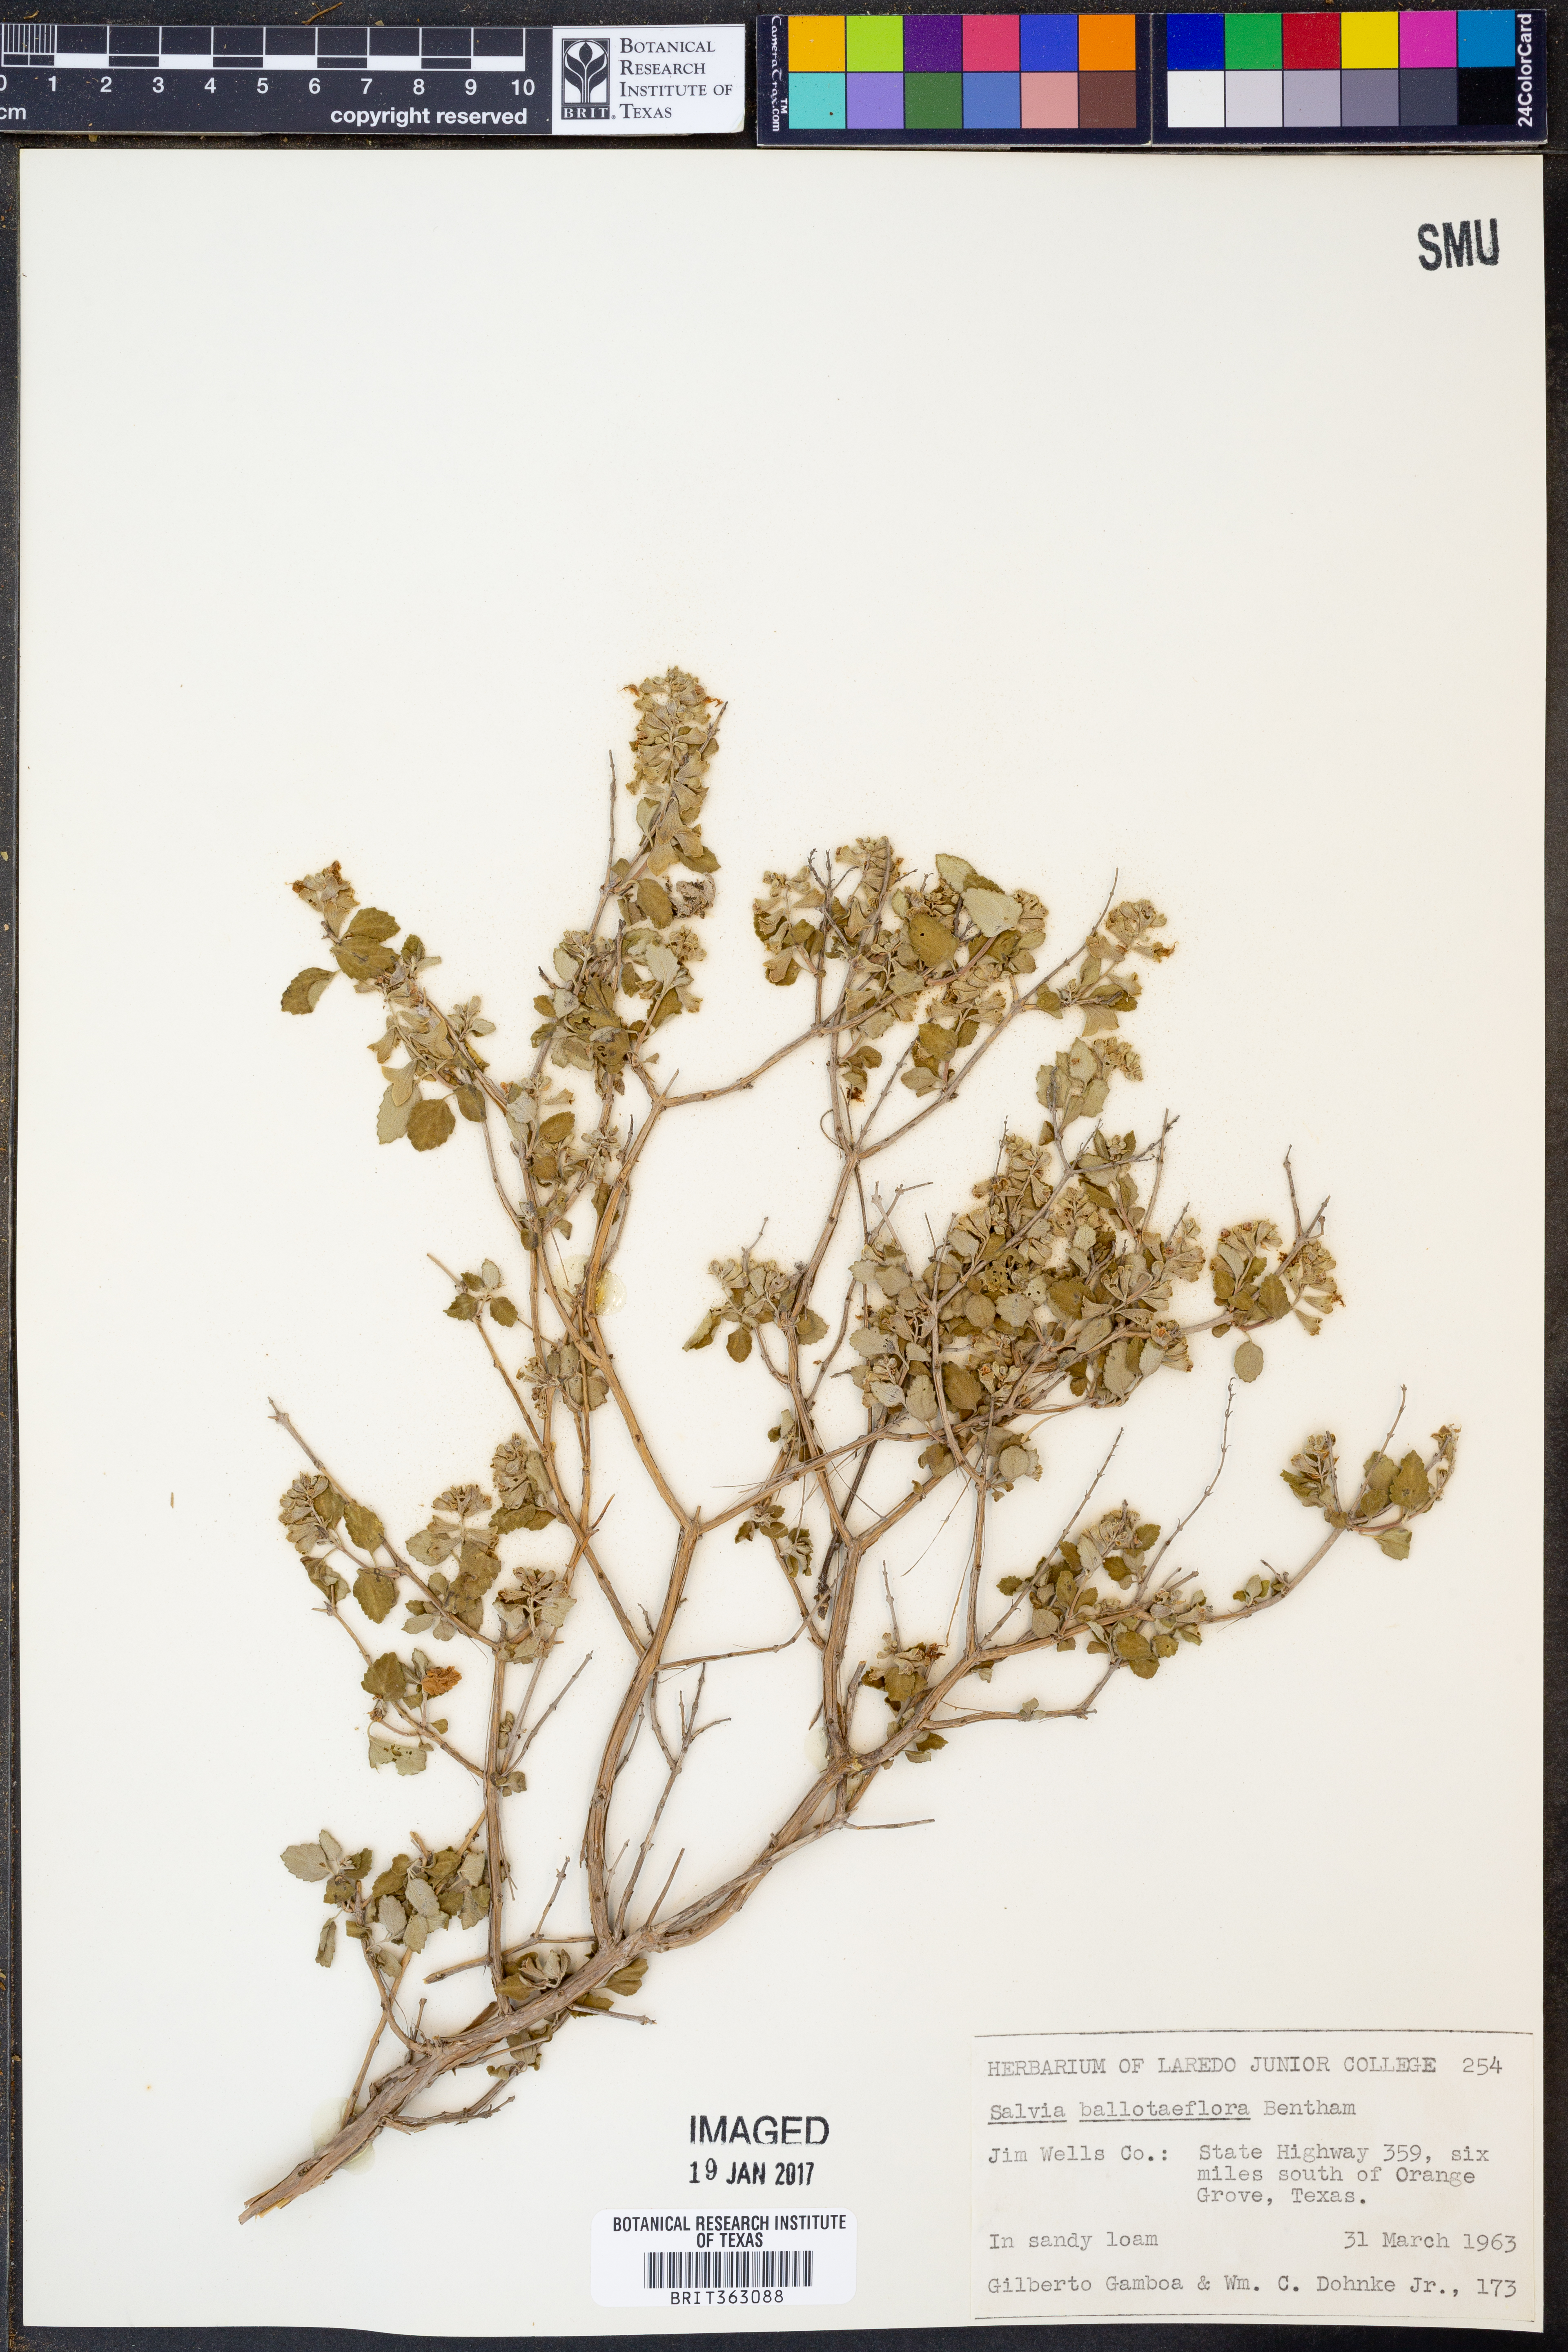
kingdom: Plantae
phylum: Tracheophyta
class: Magnoliopsida
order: Lamiales
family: Lamiaceae
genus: Salvia
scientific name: Salvia ballotiflora
